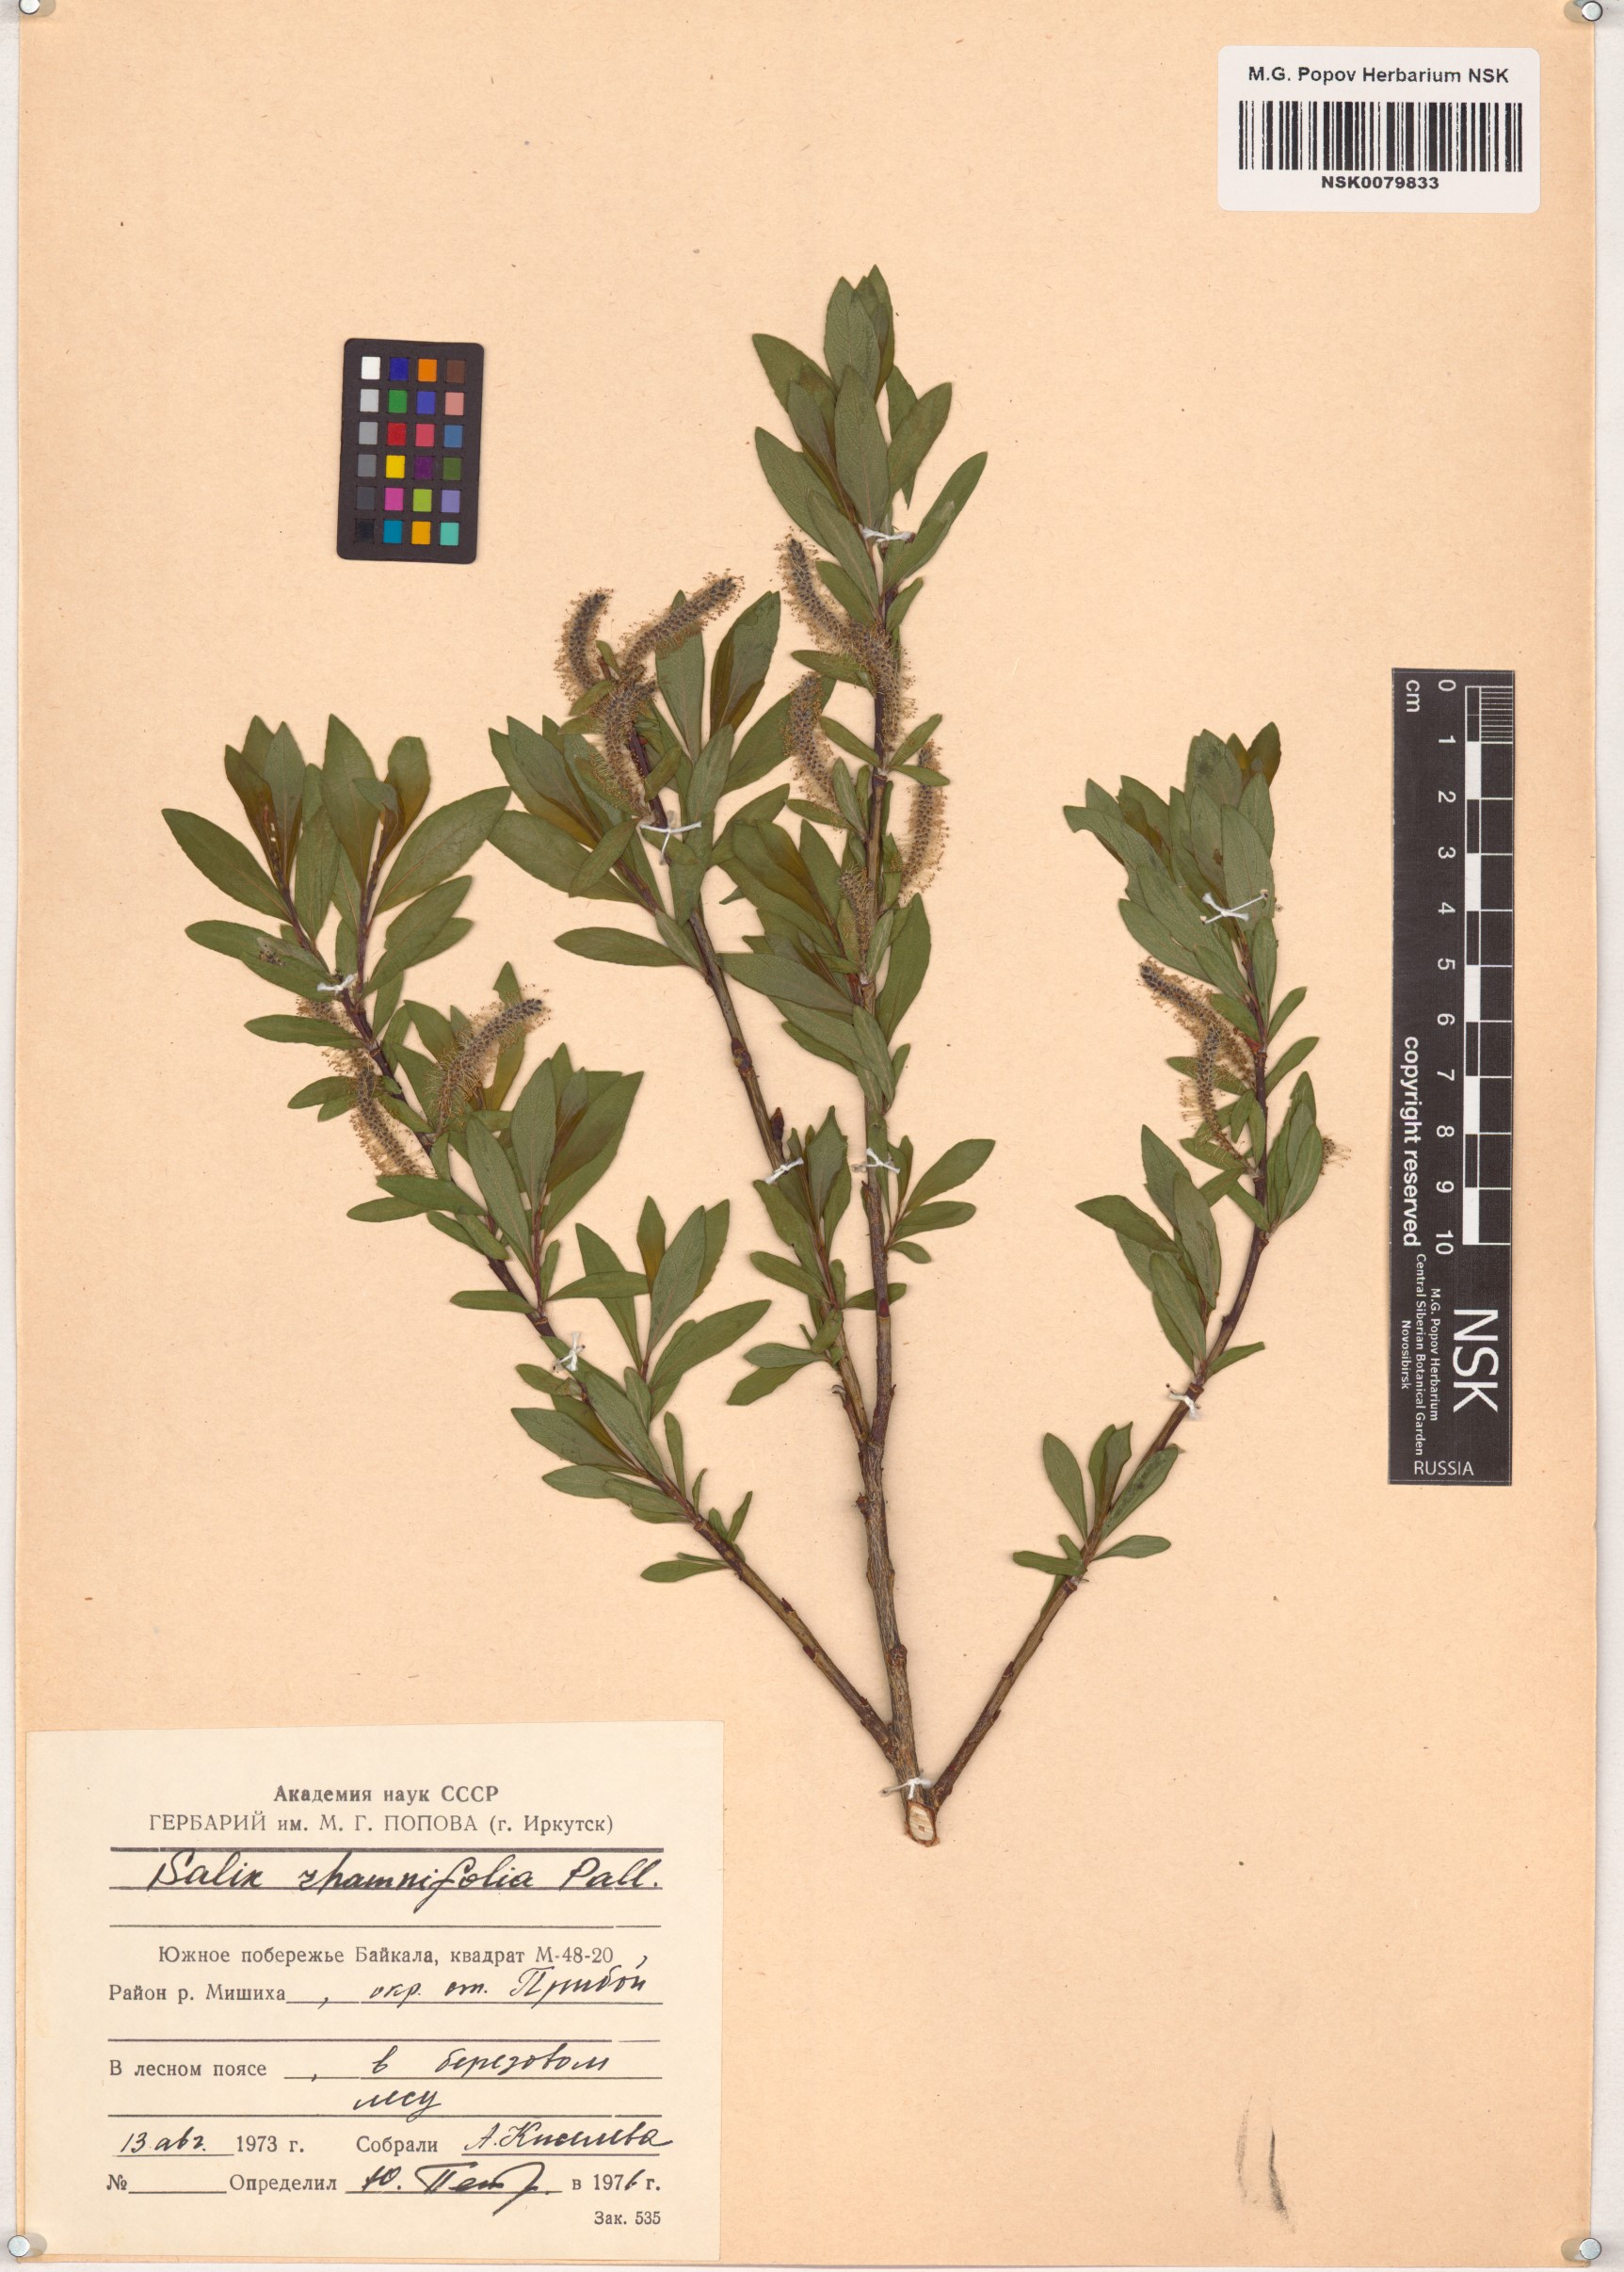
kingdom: Plantae
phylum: Tracheophyta
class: Magnoliopsida
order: Malpighiales
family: Salicaceae
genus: Salix
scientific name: Salix rhamnifolia
